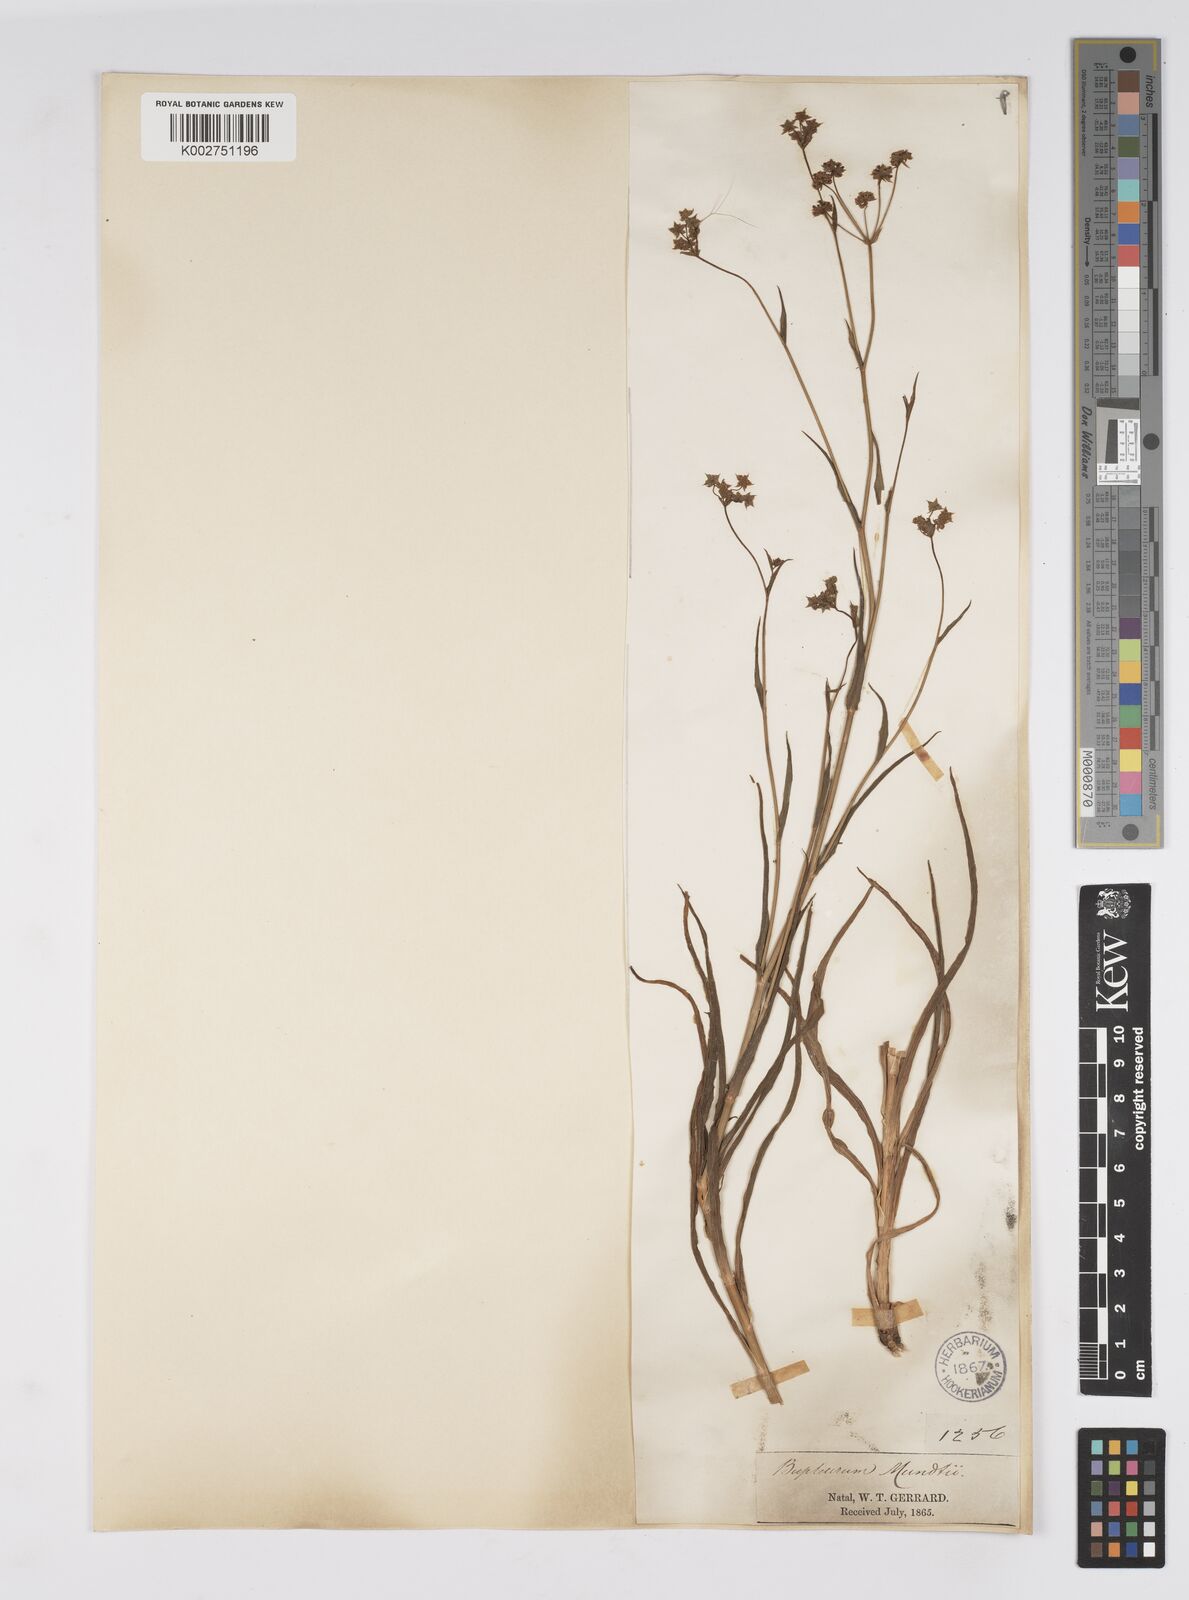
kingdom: Plantae
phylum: Tracheophyta
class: Magnoliopsida
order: Apiales
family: Apiaceae
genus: Bupleurum
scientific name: Bupleurum mundii
